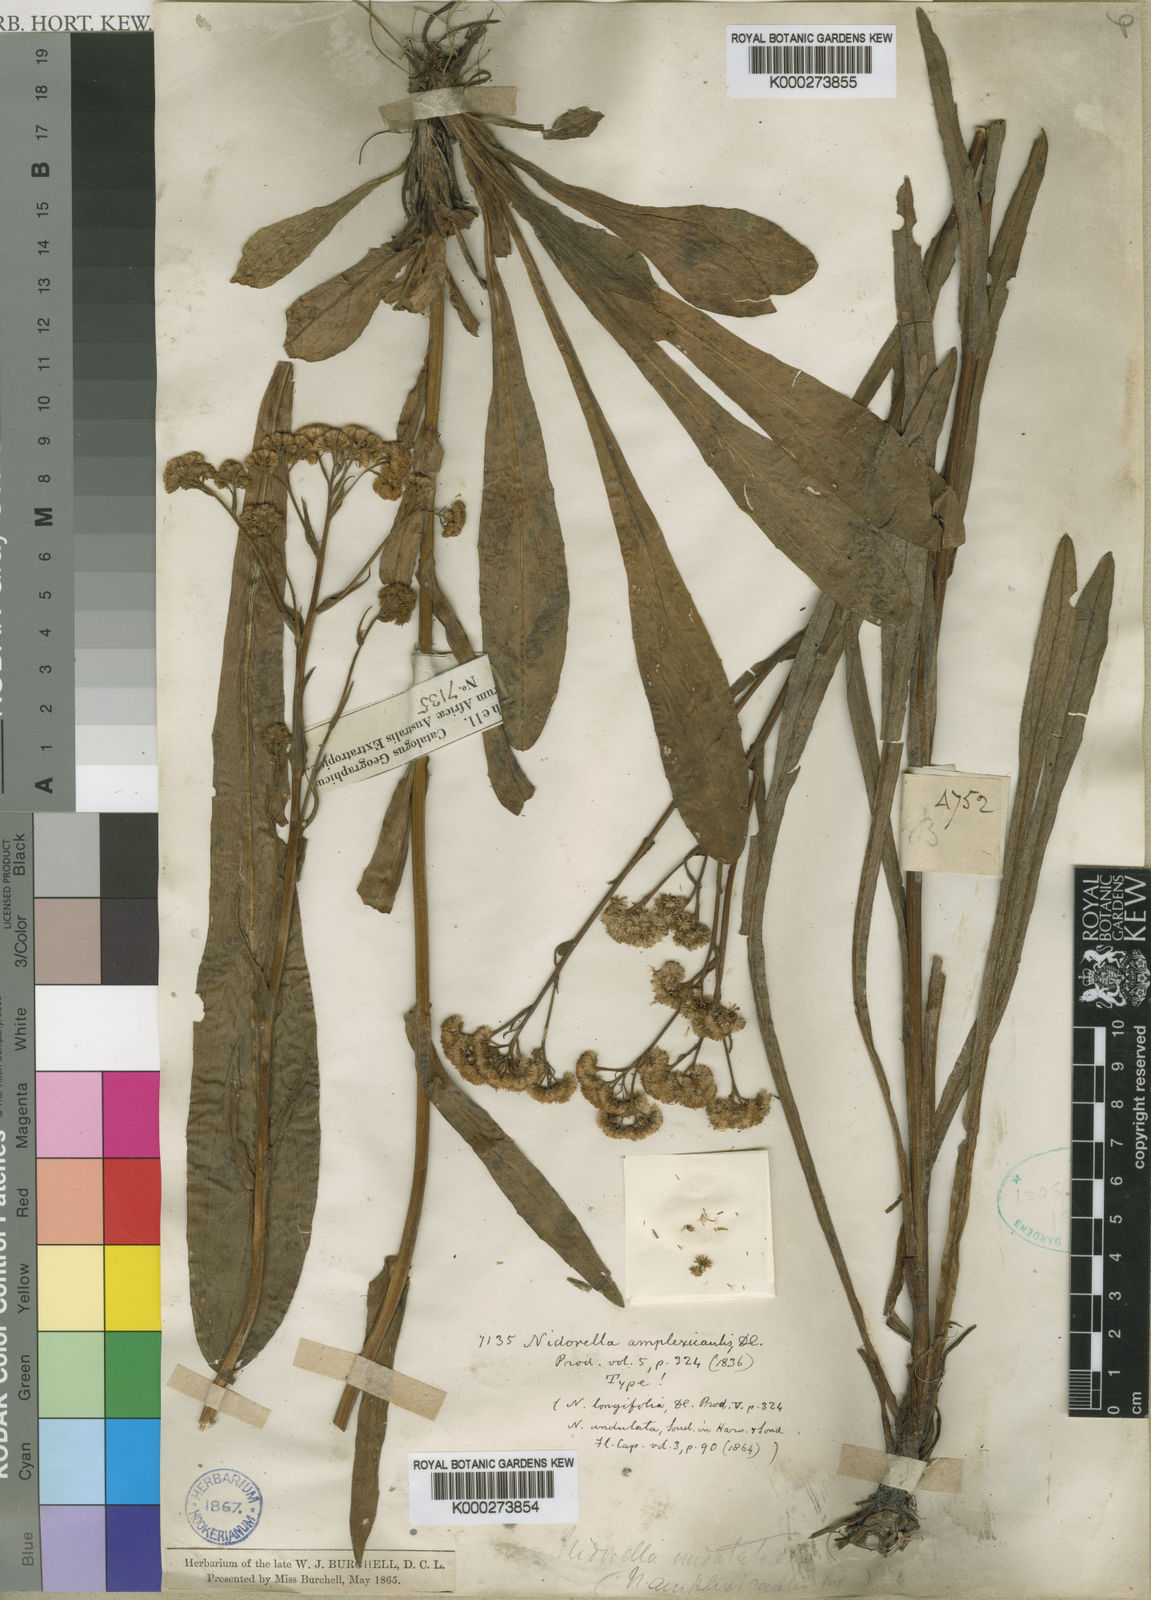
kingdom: Plantae
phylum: Tracheophyta
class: Magnoliopsida
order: Asterales
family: Asteraceae
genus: Nidorella
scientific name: Nidorella
